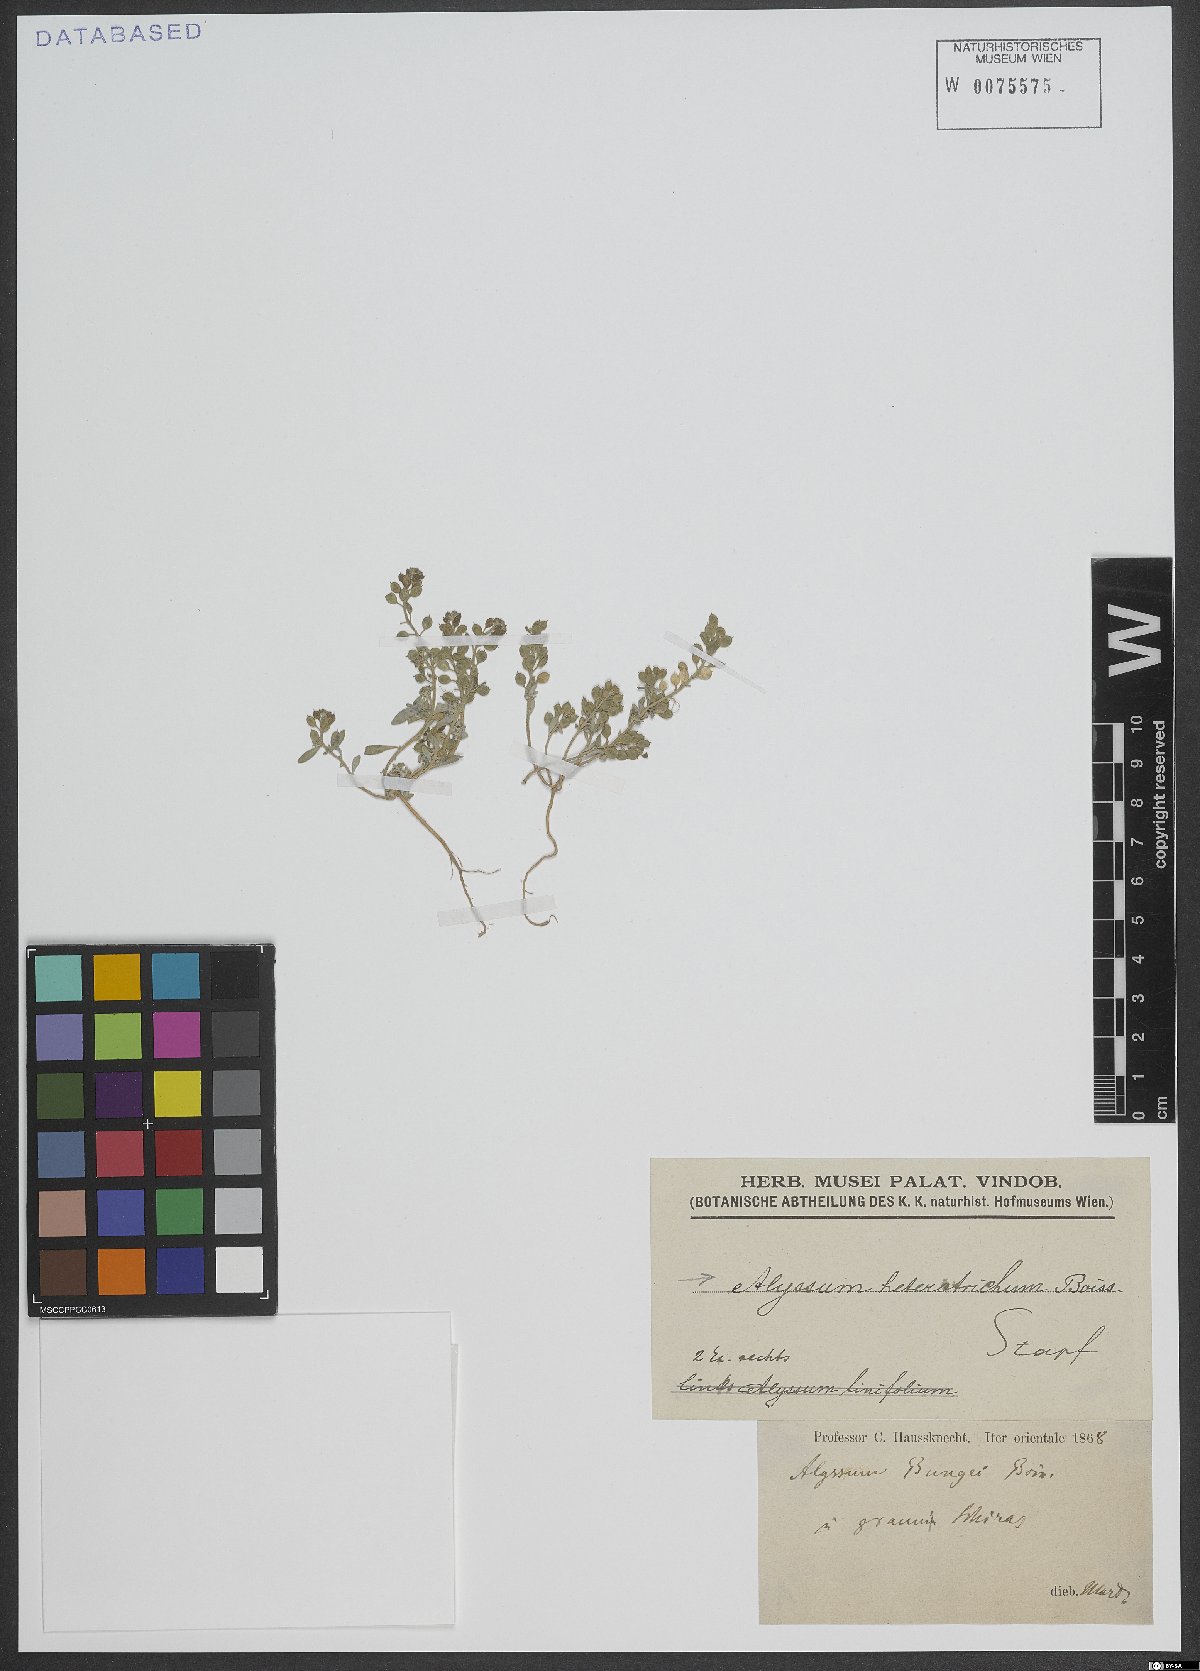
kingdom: Plantae
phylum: Tracheophyta
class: Magnoliopsida
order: Brassicales
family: Brassicaceae
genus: Meniocus
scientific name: Meniocus heterotrichus
